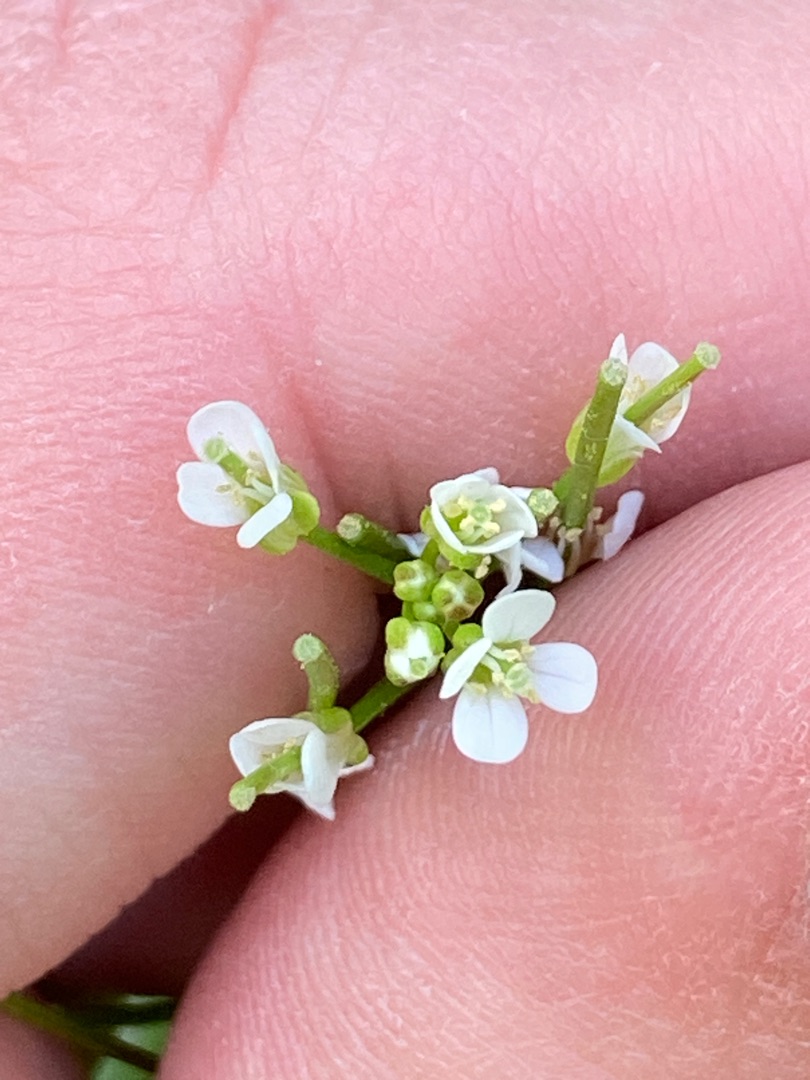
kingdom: Plantae
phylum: Tracheophyta
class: Magnoliopsida
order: Brassicales
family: Brassicaceae
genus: Cardamine
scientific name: Cardamine flexuosa
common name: Skov-springklap
